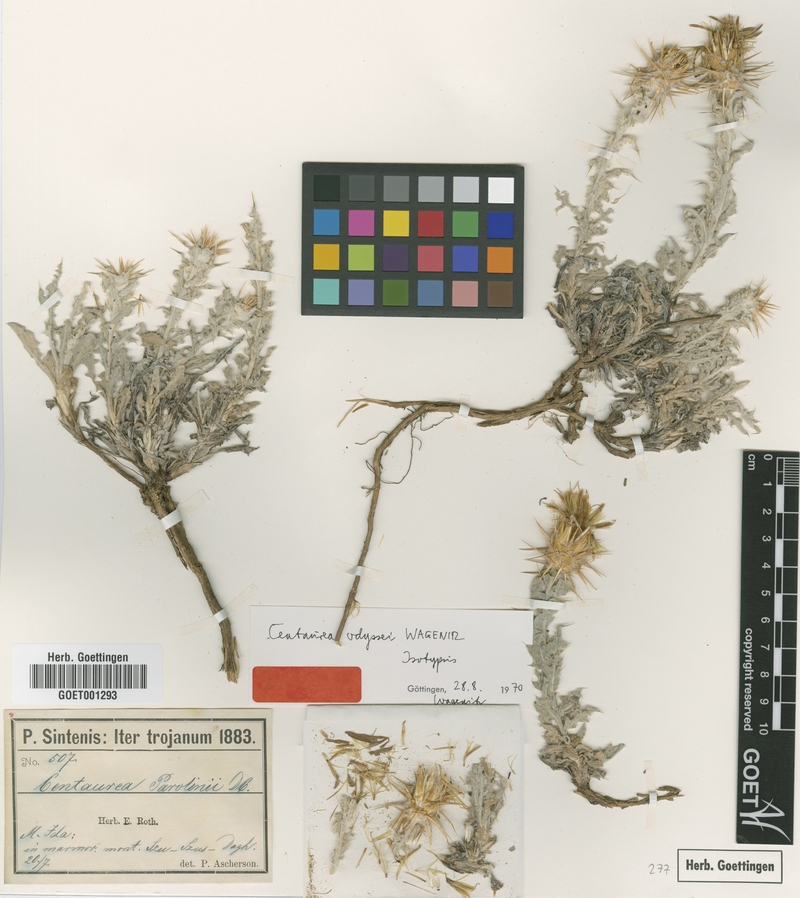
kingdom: Plantae
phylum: Tracheophyta
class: Magnoliopsida
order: Asterales
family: Asteraceae
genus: Centaurea
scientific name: Centaurea odyssei
